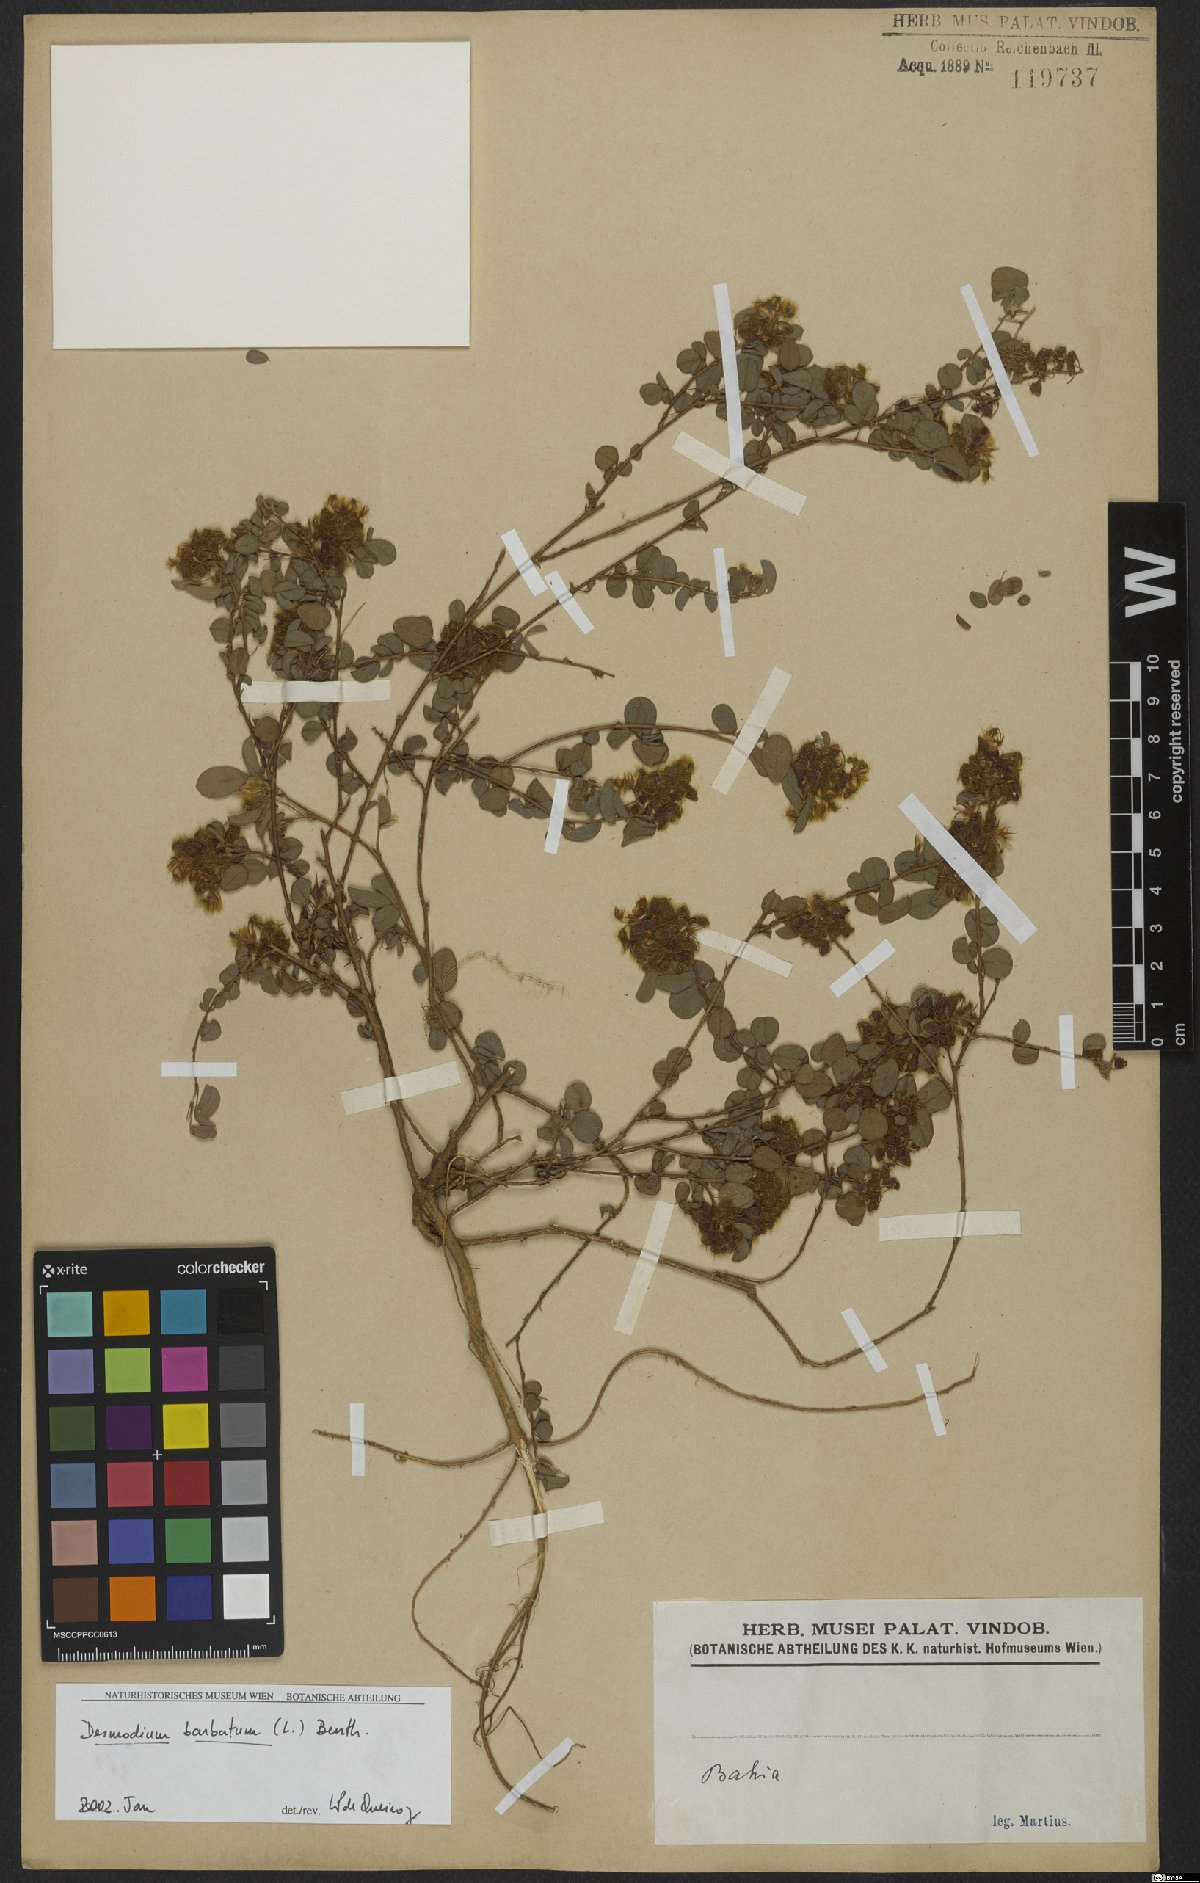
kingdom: Plantae
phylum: Tracheophyta
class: Magnoliopsida
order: Fabales
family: Fabaceae
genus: Grona
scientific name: Grona barbata
